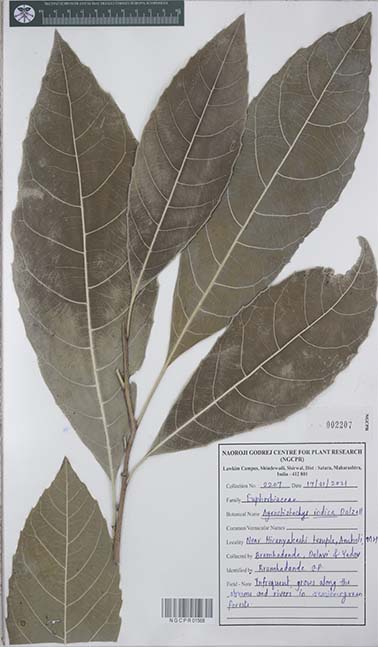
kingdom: Plantae
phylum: Tracheophyta
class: Magnoliopsida
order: Malpighiales
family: Euphorbiaceae
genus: Agrostistachys
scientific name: Agrostistachys indica
